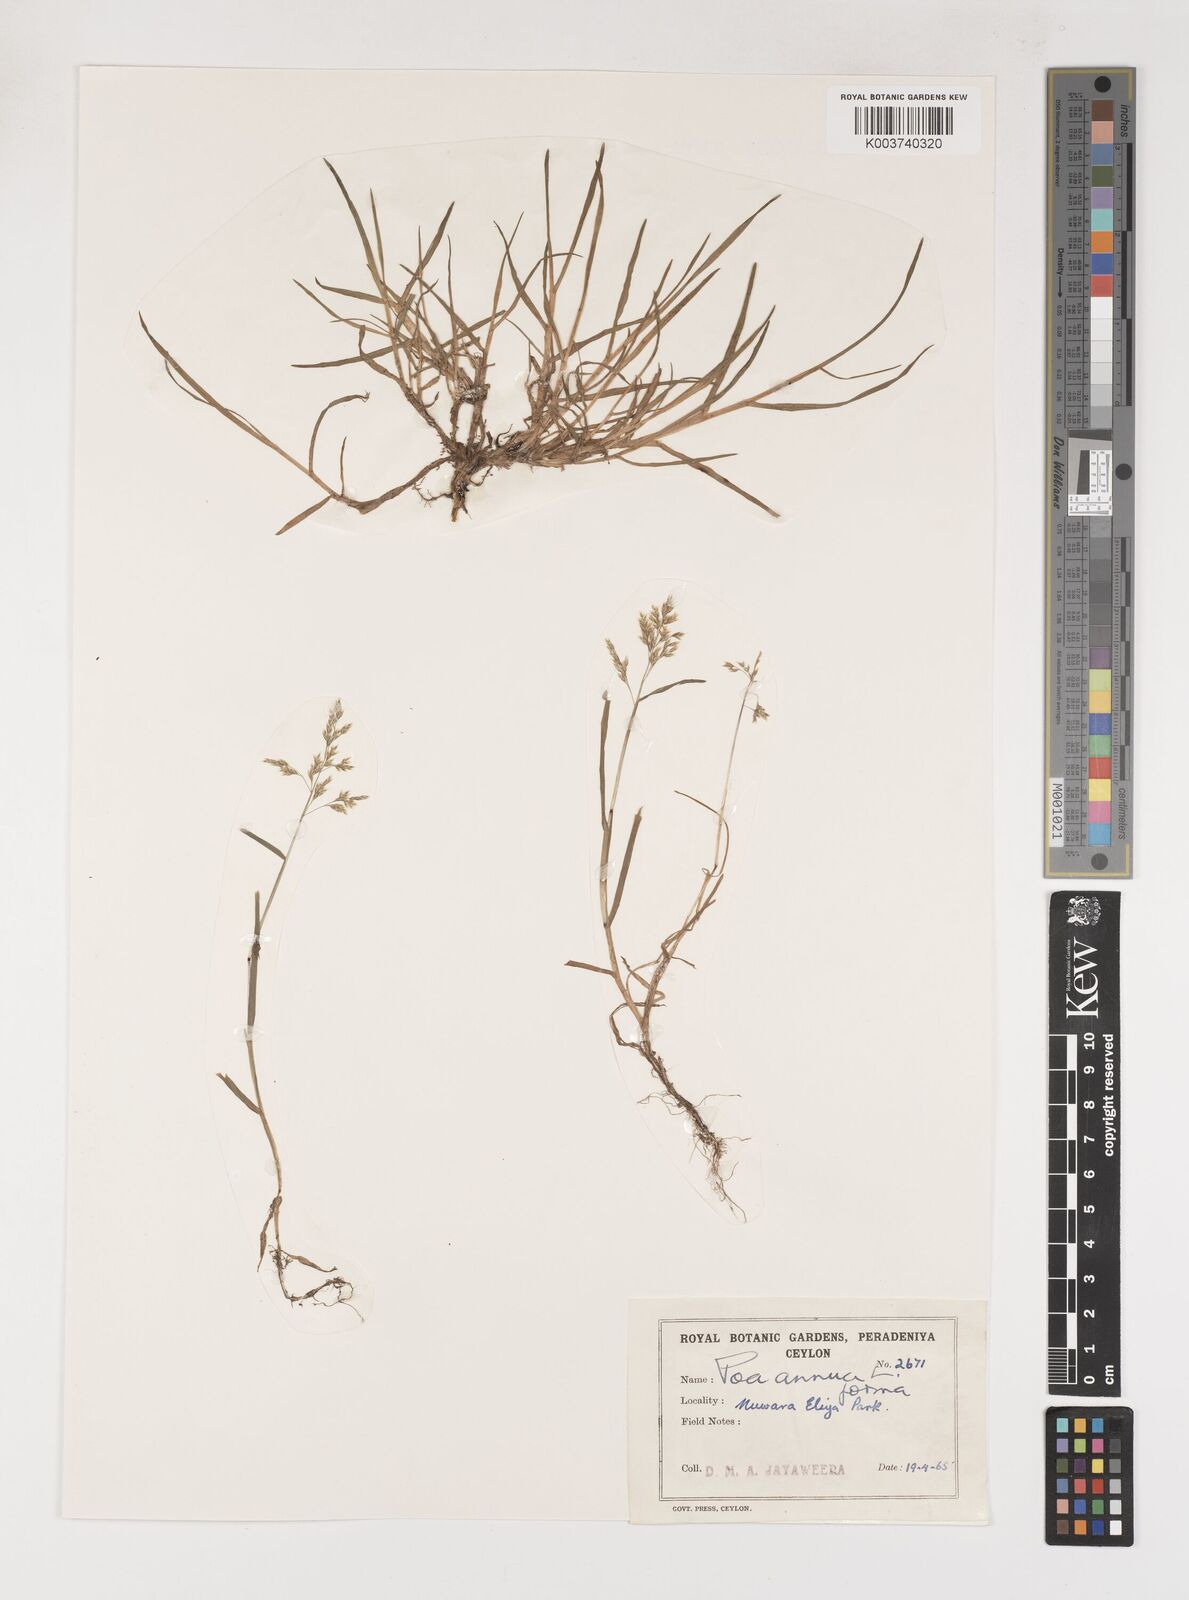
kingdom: Plantae
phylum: Tracheophyta
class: Liliopsida
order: Poales
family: Poaceae
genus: Poa
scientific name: Poa annua
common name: Annual bluegrass
